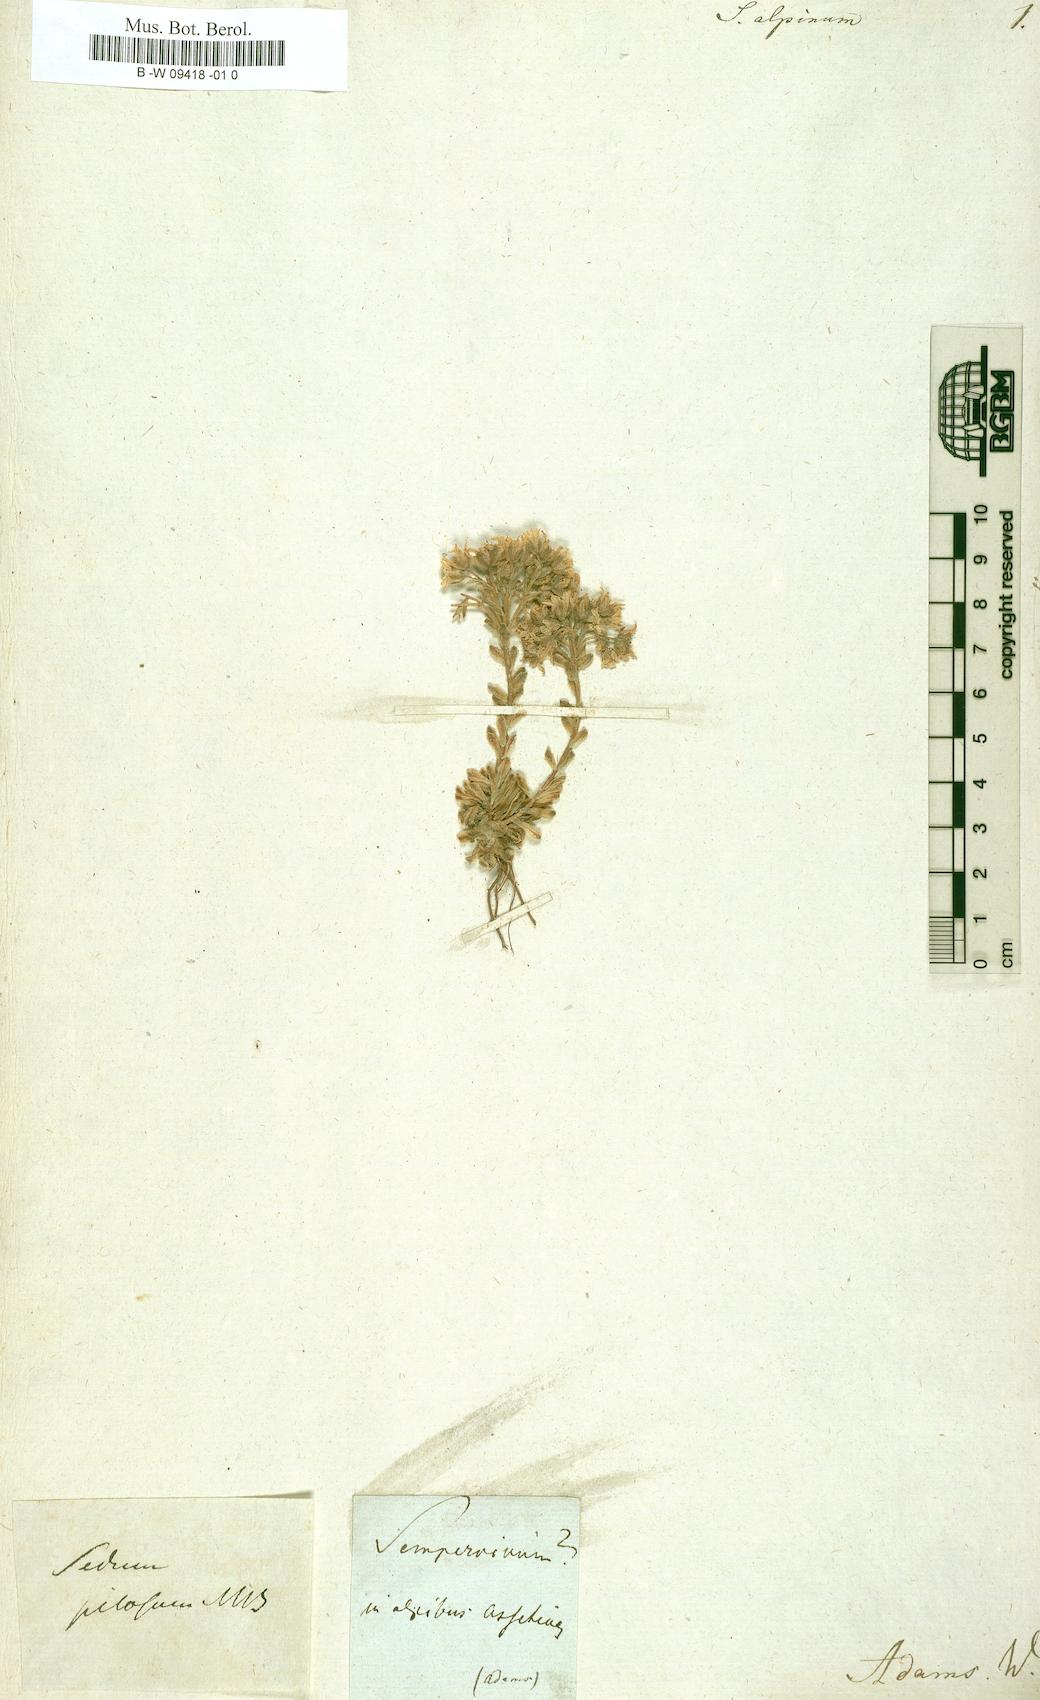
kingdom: Plantae
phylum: Tracheophyta
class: Magnoliopsida
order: Saxifragales
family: Crassulaceae
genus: Sempervivum
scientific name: Sempervivum tectorum
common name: House-leek
